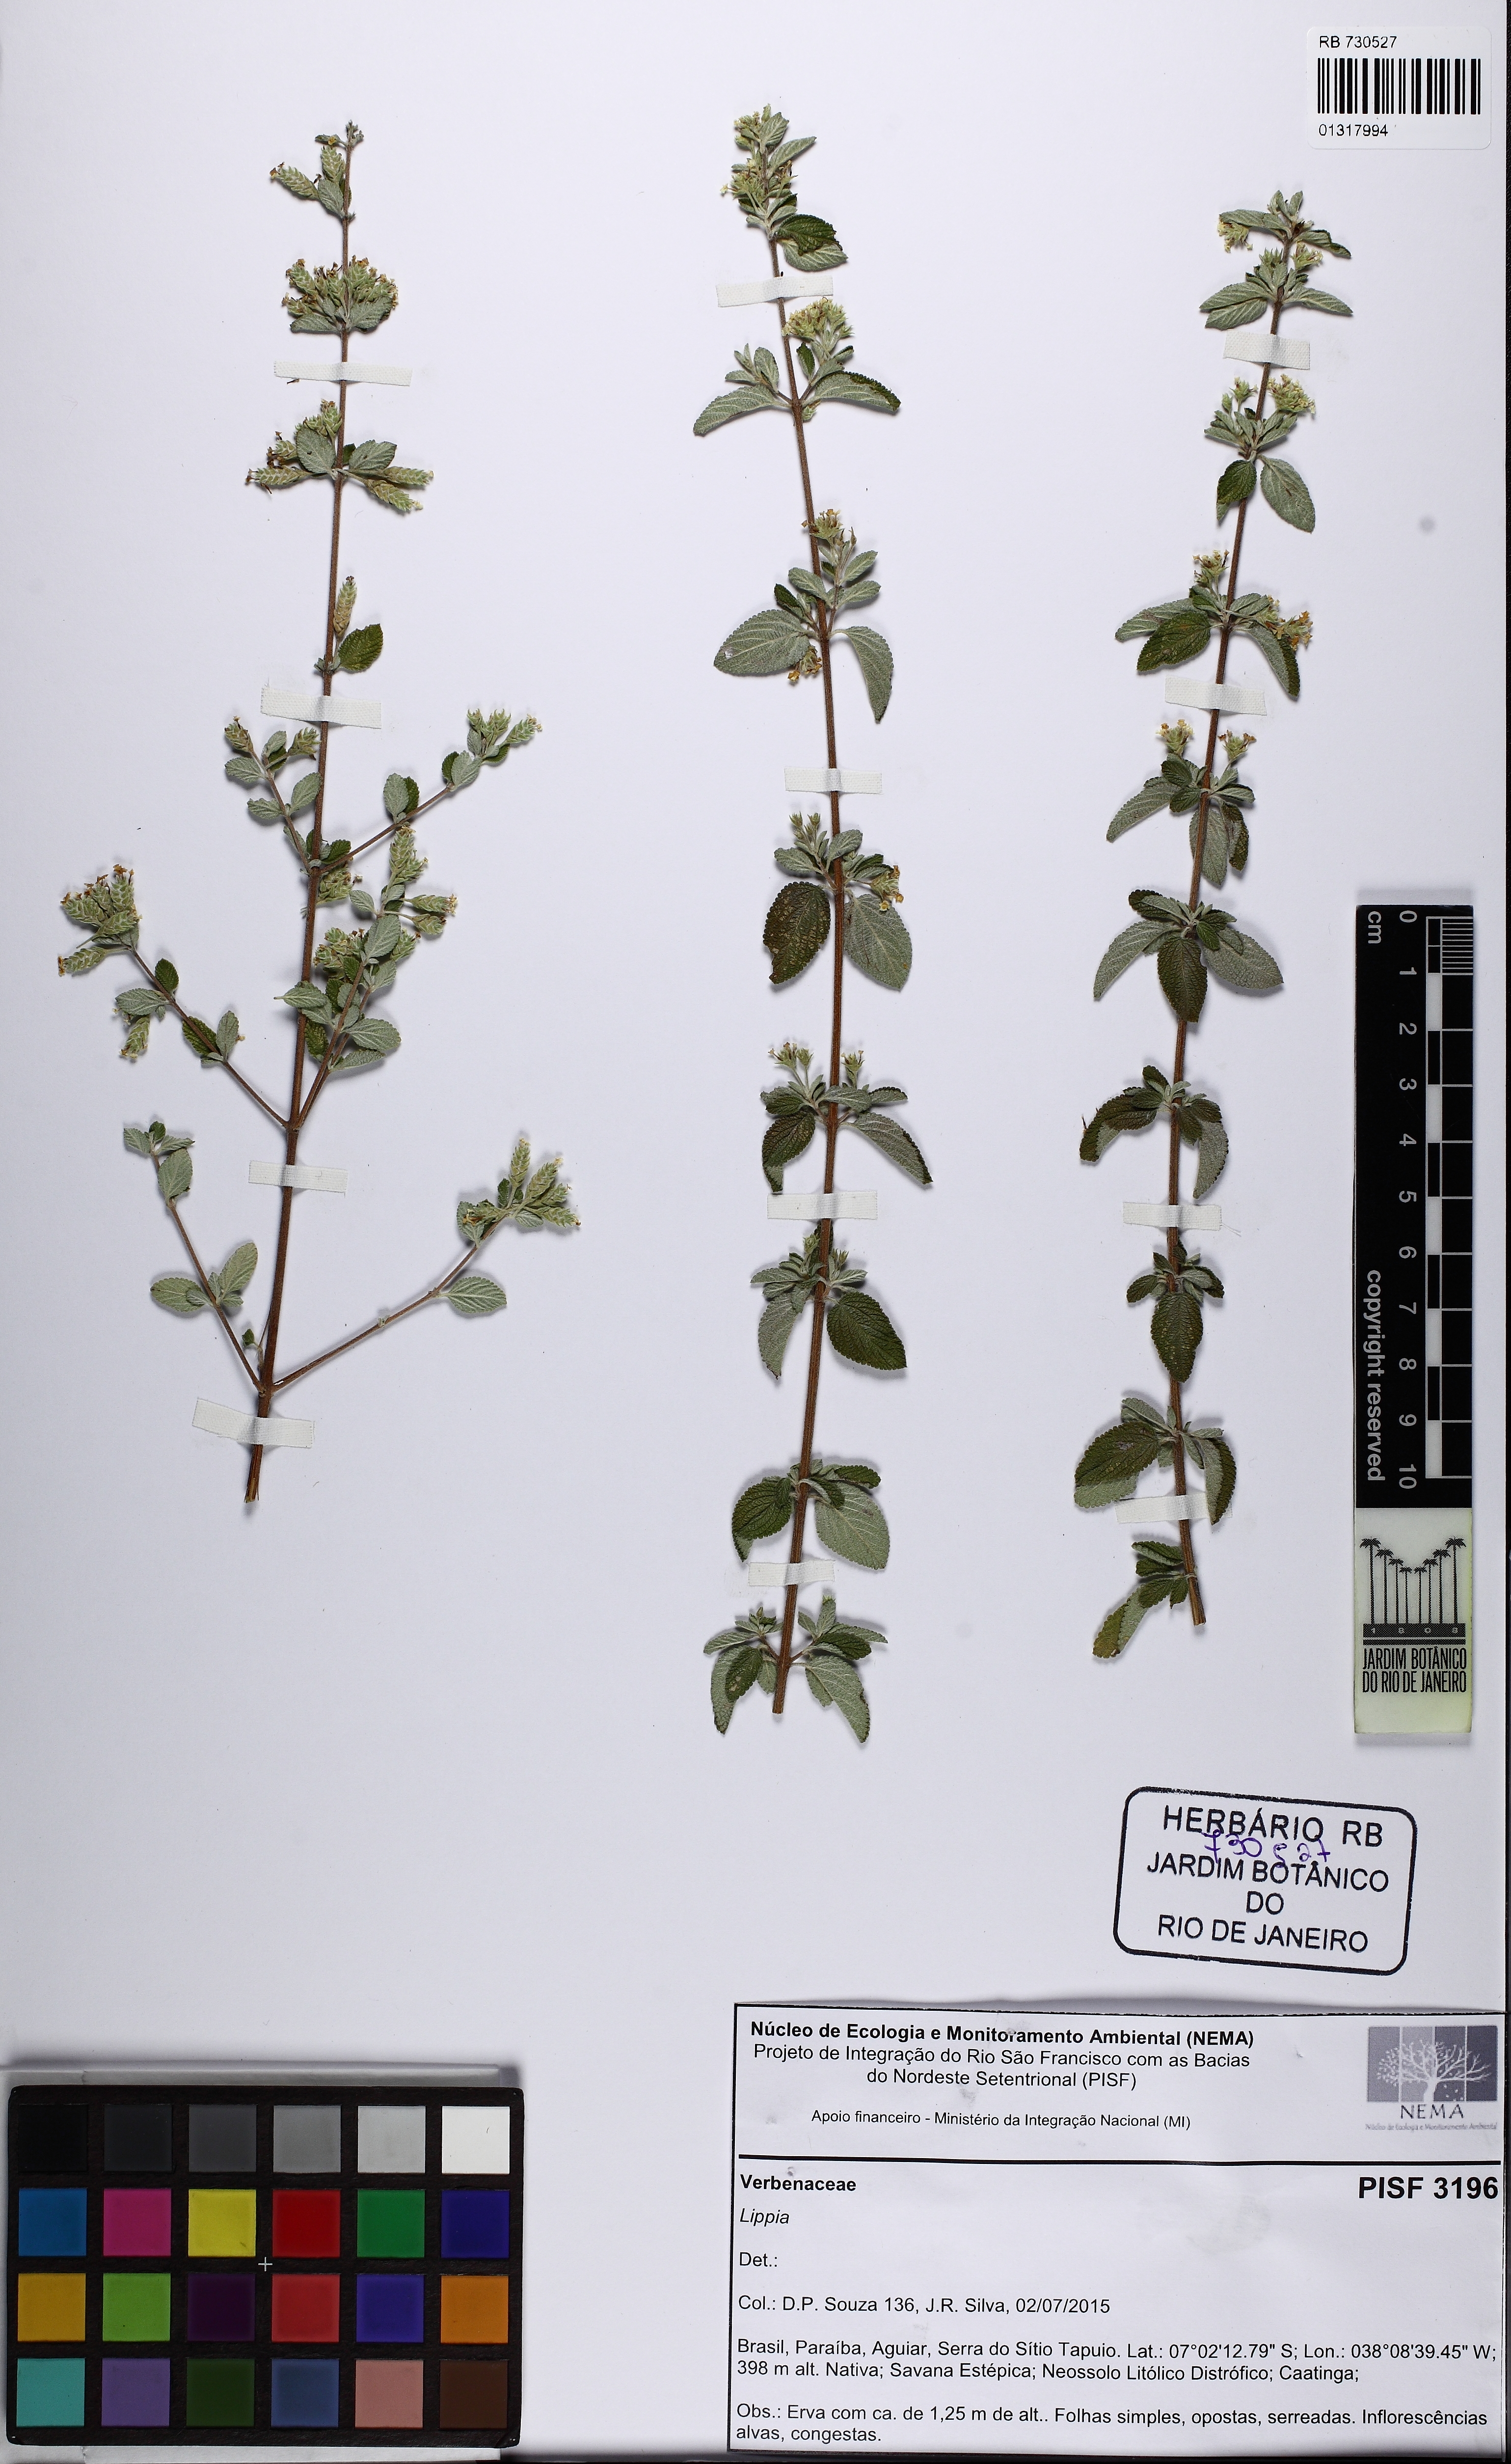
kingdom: Plantae
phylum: Tracheophyta
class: Magnoliopsida
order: Lamiales
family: Verbenaceae
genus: Lippia
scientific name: Lippia
